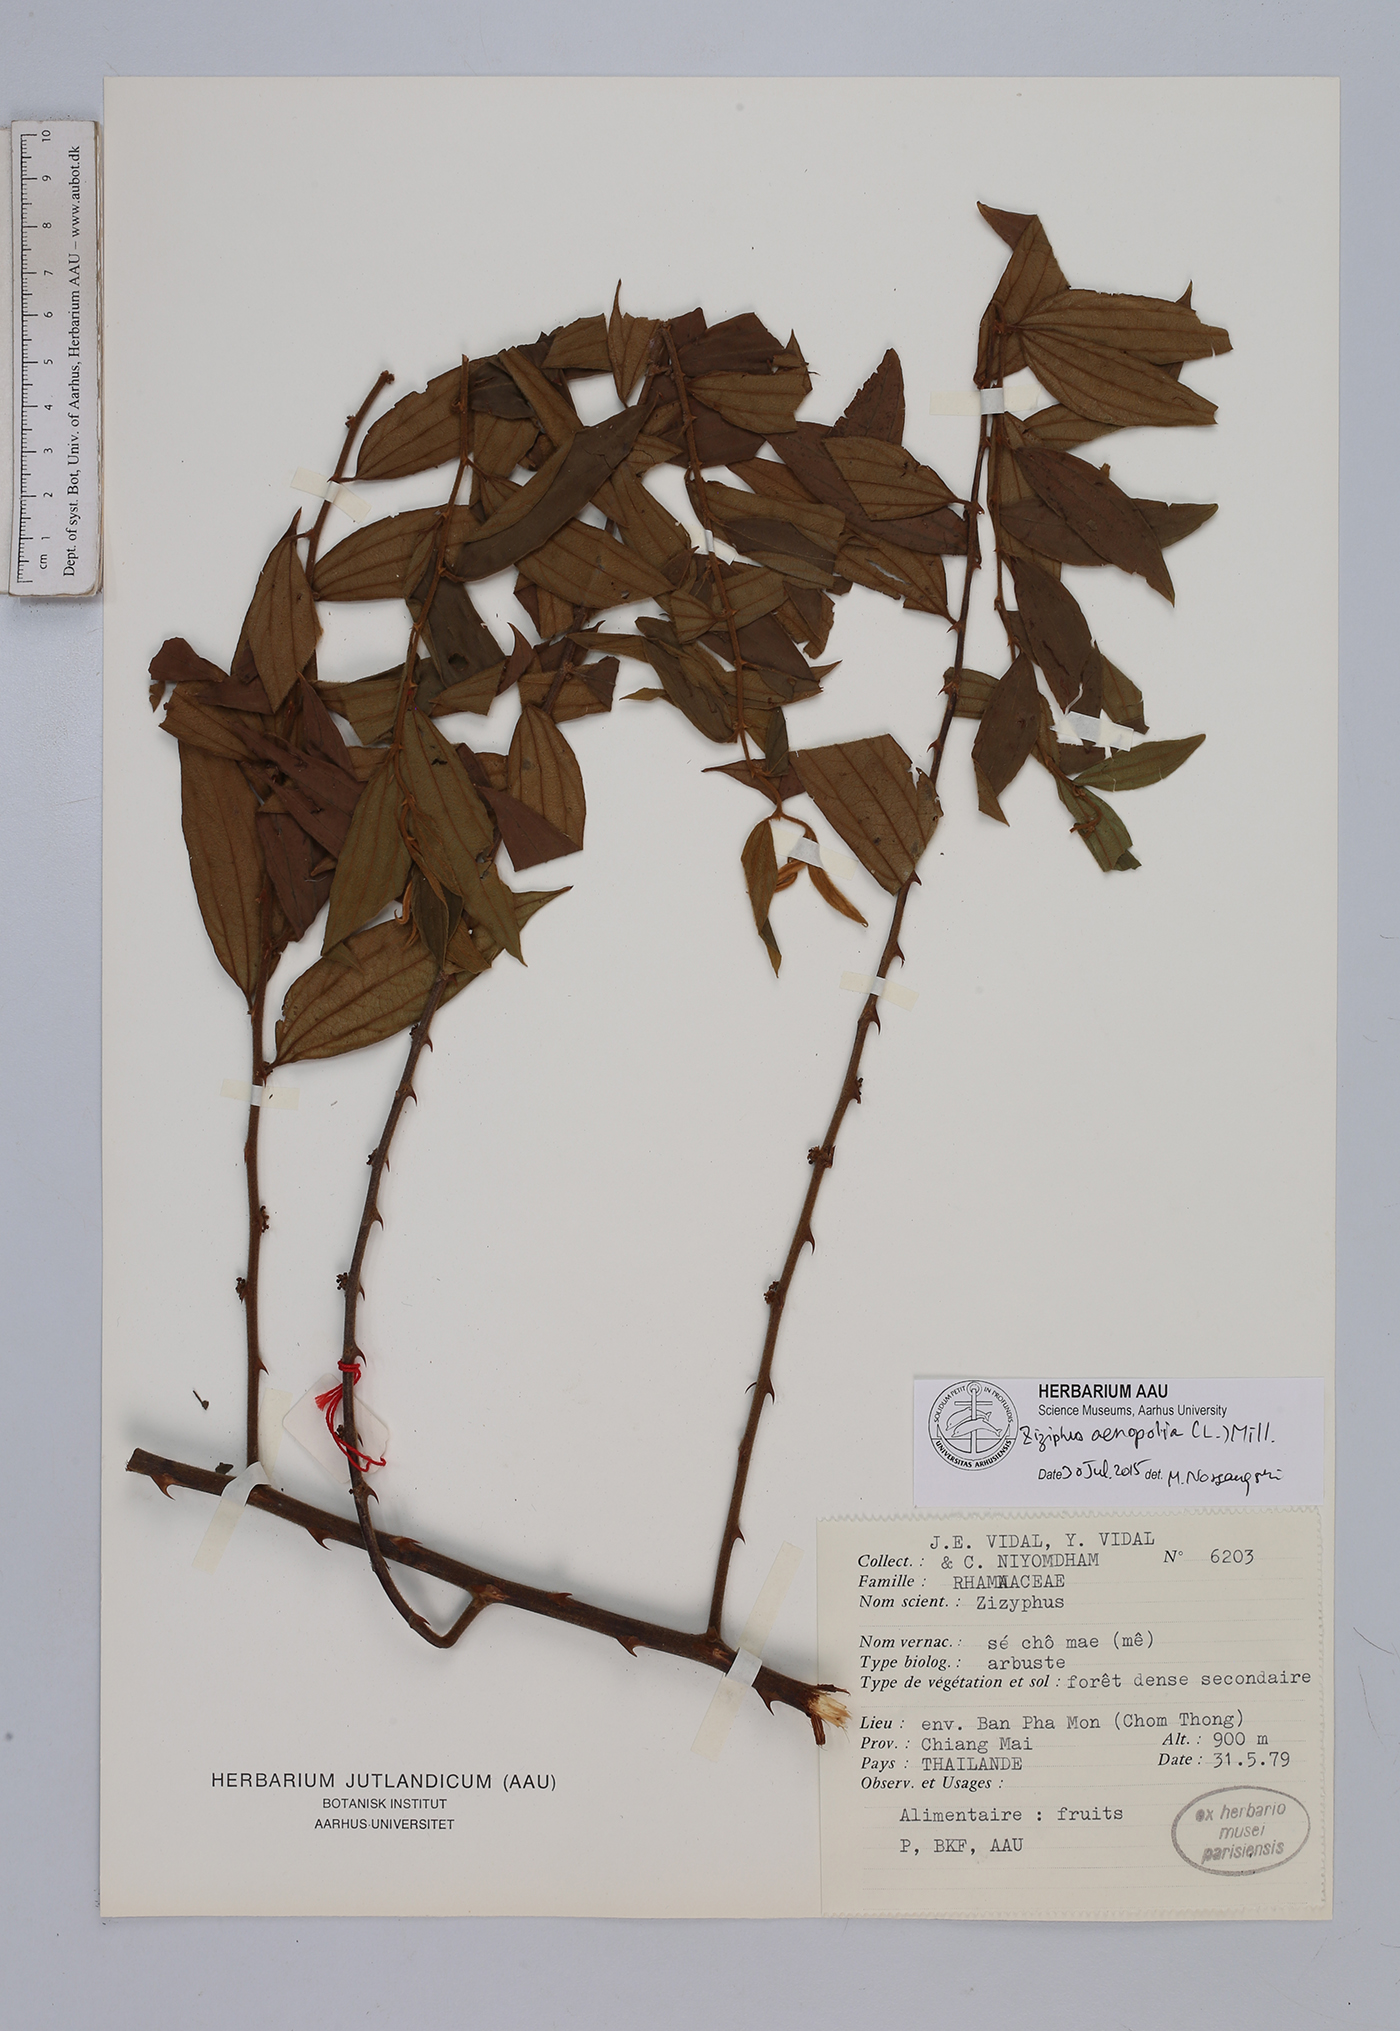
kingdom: Plantae
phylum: Tracheophyta
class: Magnoliopsida
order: Rosales
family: Rhamnaceae
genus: Ziziphus
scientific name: Ziziphus oenopolia
